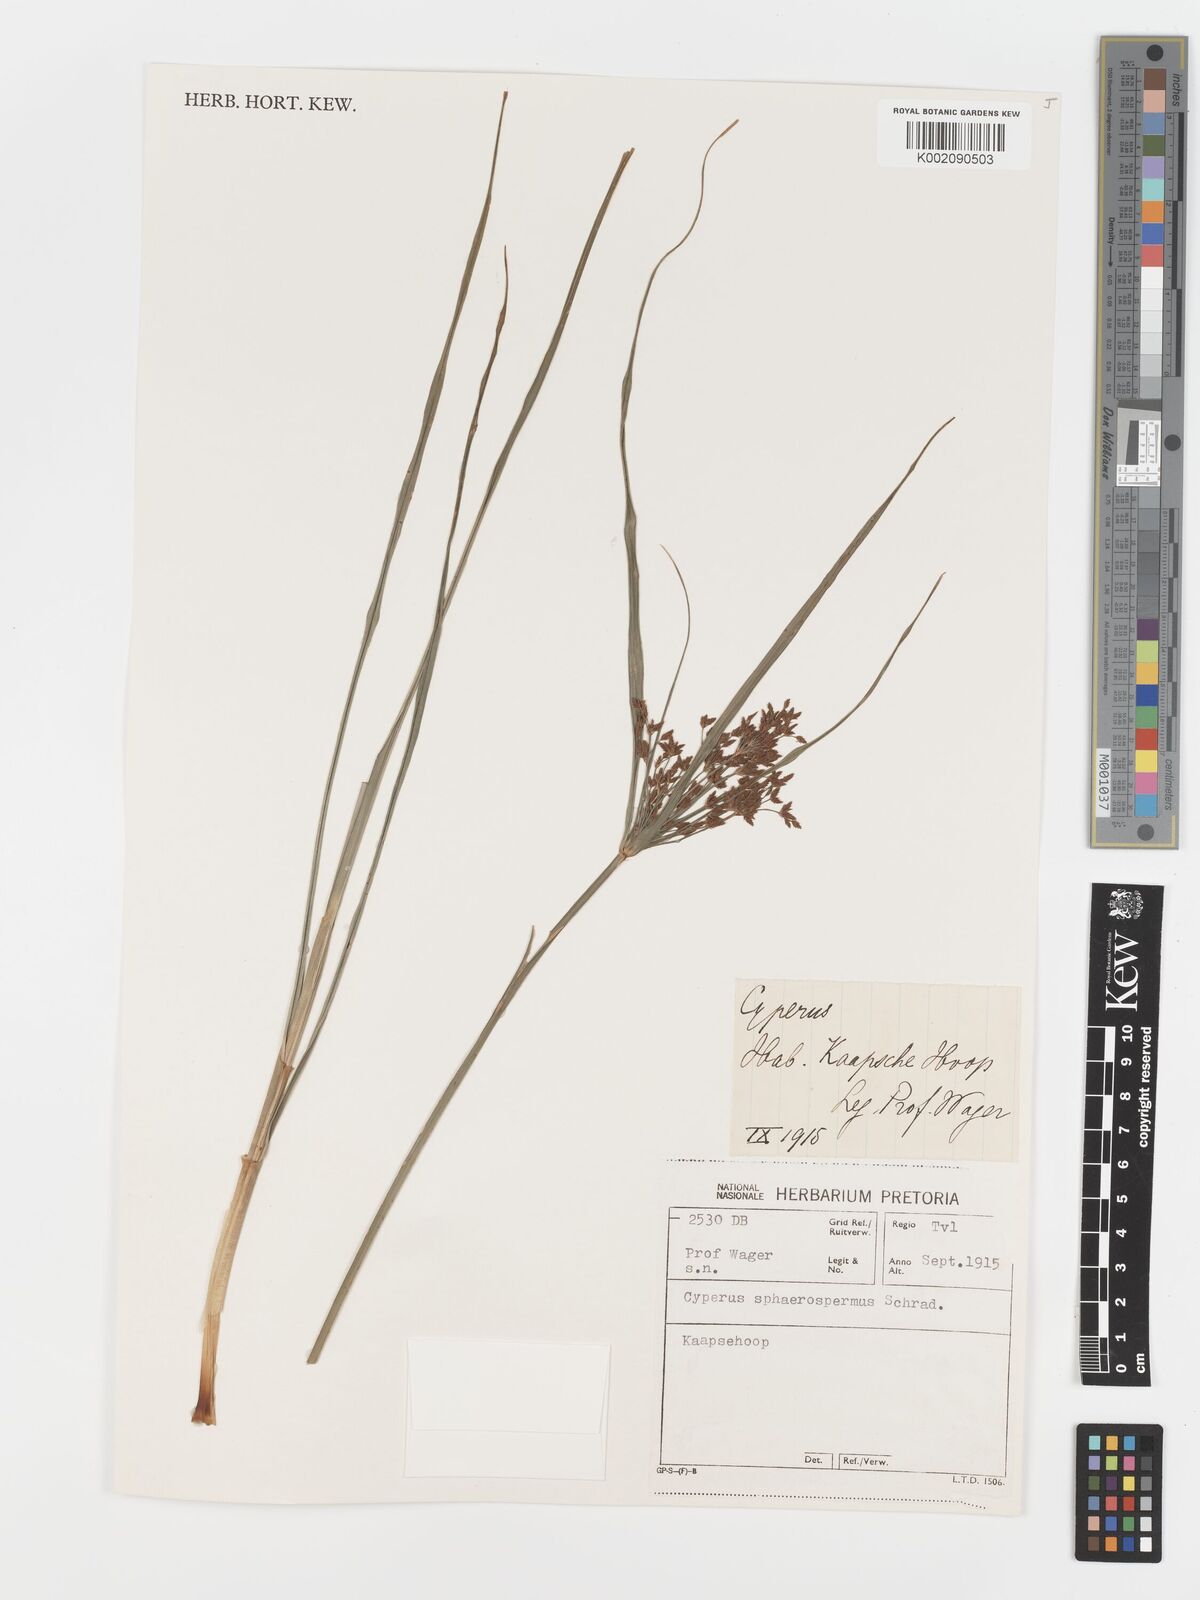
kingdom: Plantae
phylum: Tracheophyta
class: Liliopsida
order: Poales
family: Cyperaceae
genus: Cyperus
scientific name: Cyperus sphaerospermus
